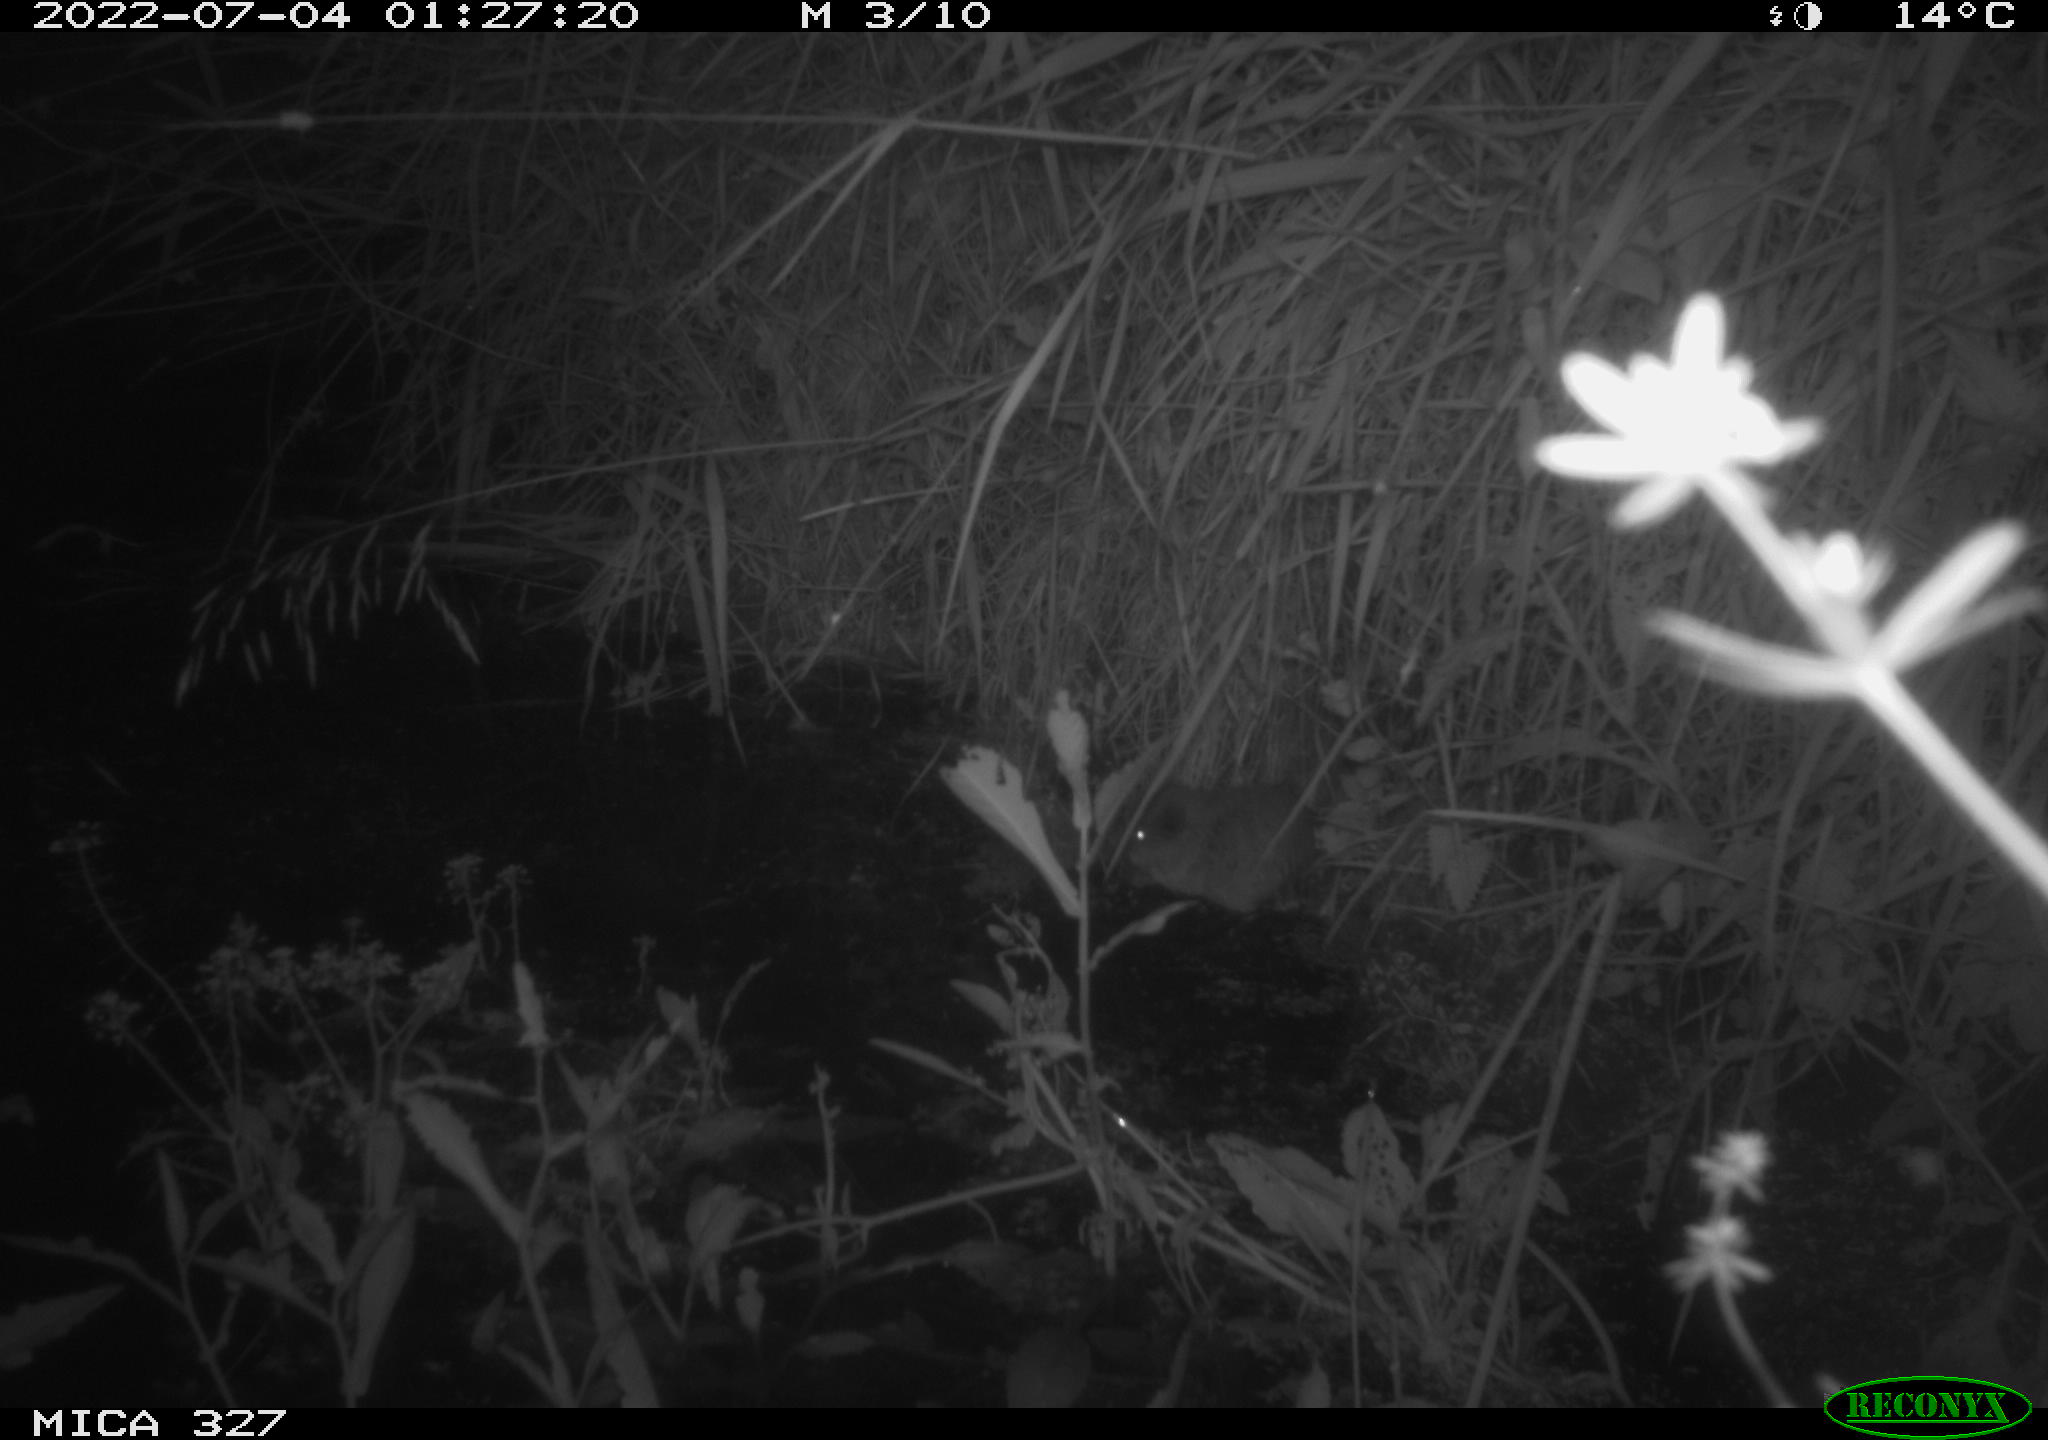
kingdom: Animalia
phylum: Chordata
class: Mammalia
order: Rodentia
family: Cricetidae
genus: Ondatra
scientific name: Ondatra zibethicus
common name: Muskrat
